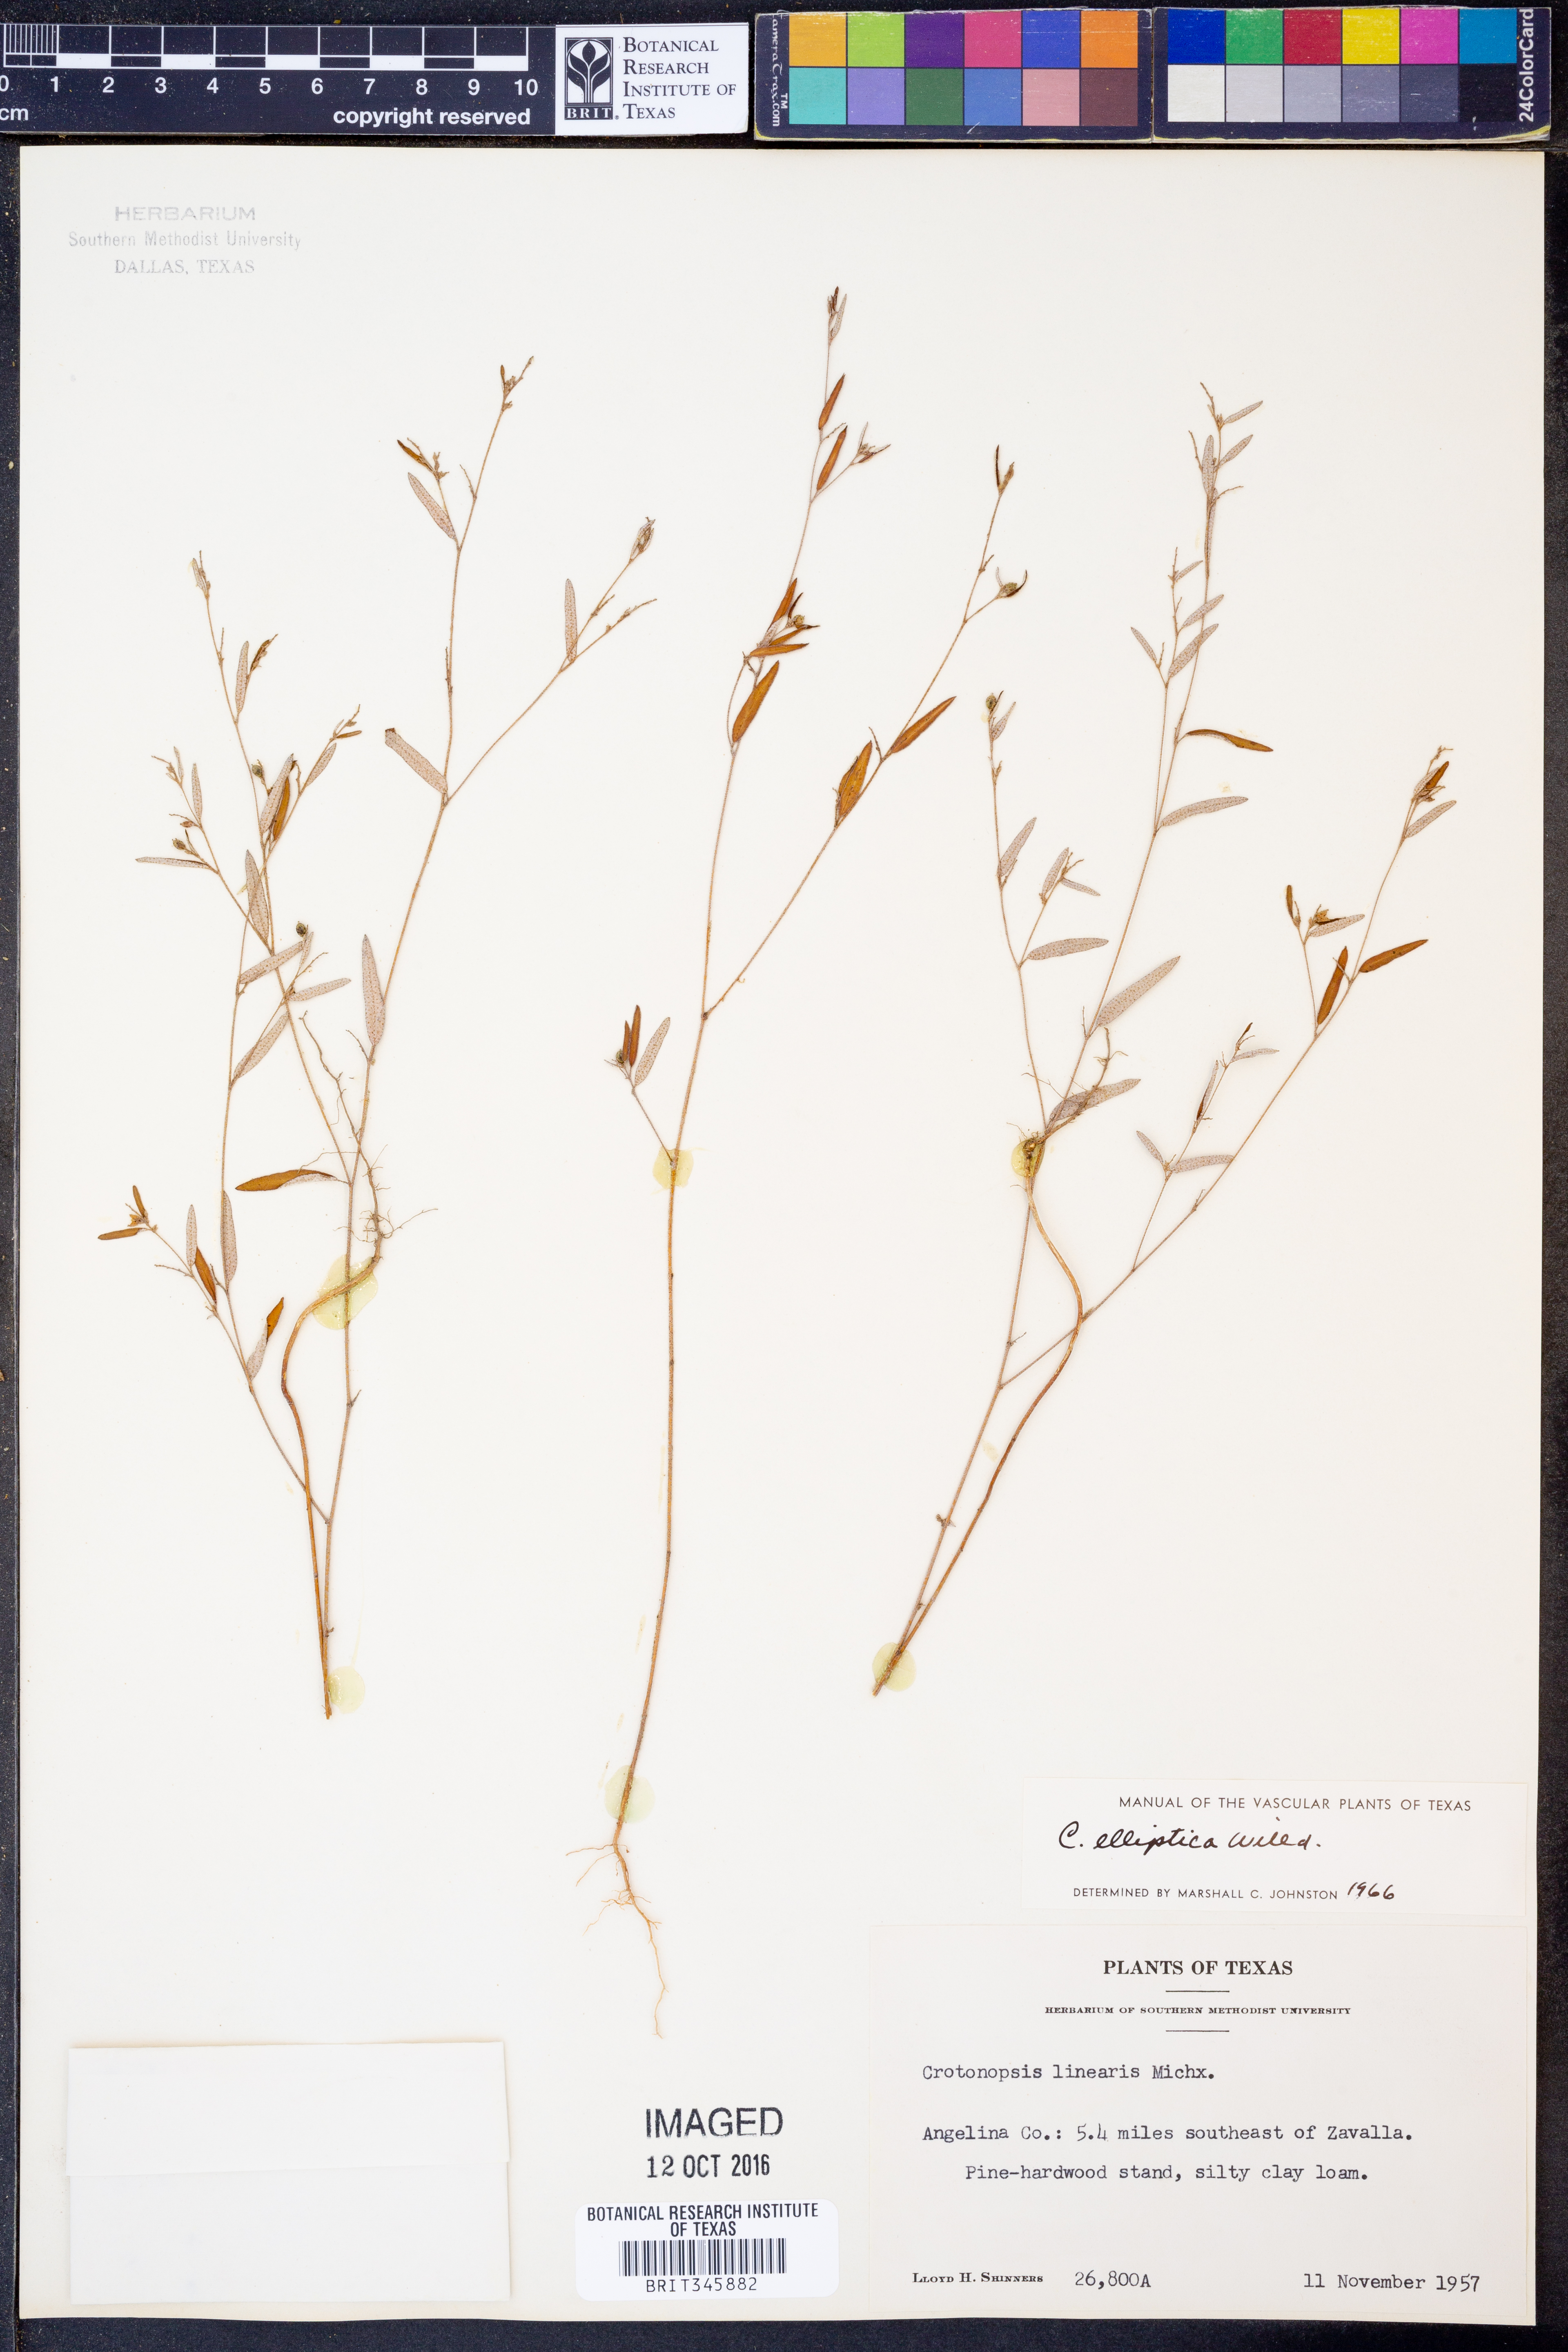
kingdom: Plantae
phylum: Tracheophyta
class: Magnoliopsida
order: Malpighiales
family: Euphorbiaceae
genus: Croton
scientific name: Croton michauxii
